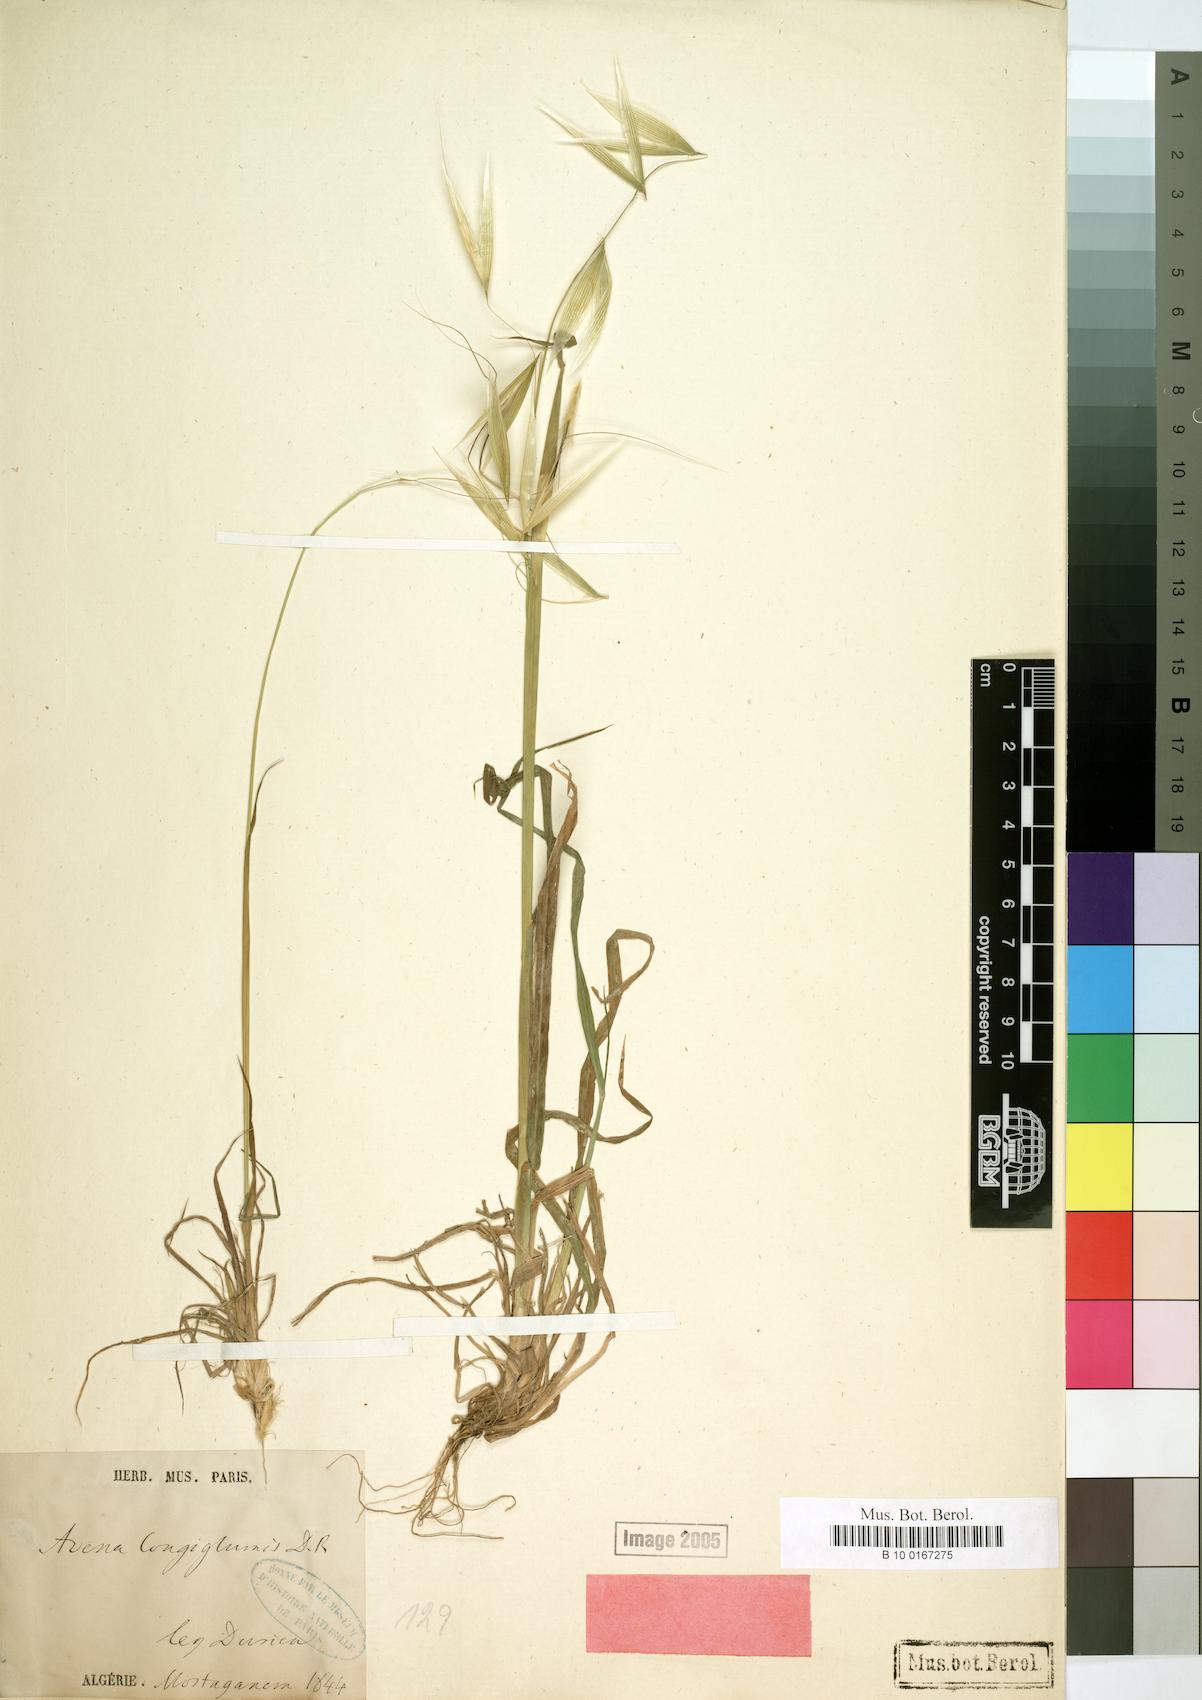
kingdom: Plantae
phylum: Tracheophyta
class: Liliopsida
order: Poales
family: Poaceae
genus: Avena
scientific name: Avena longiglumis
